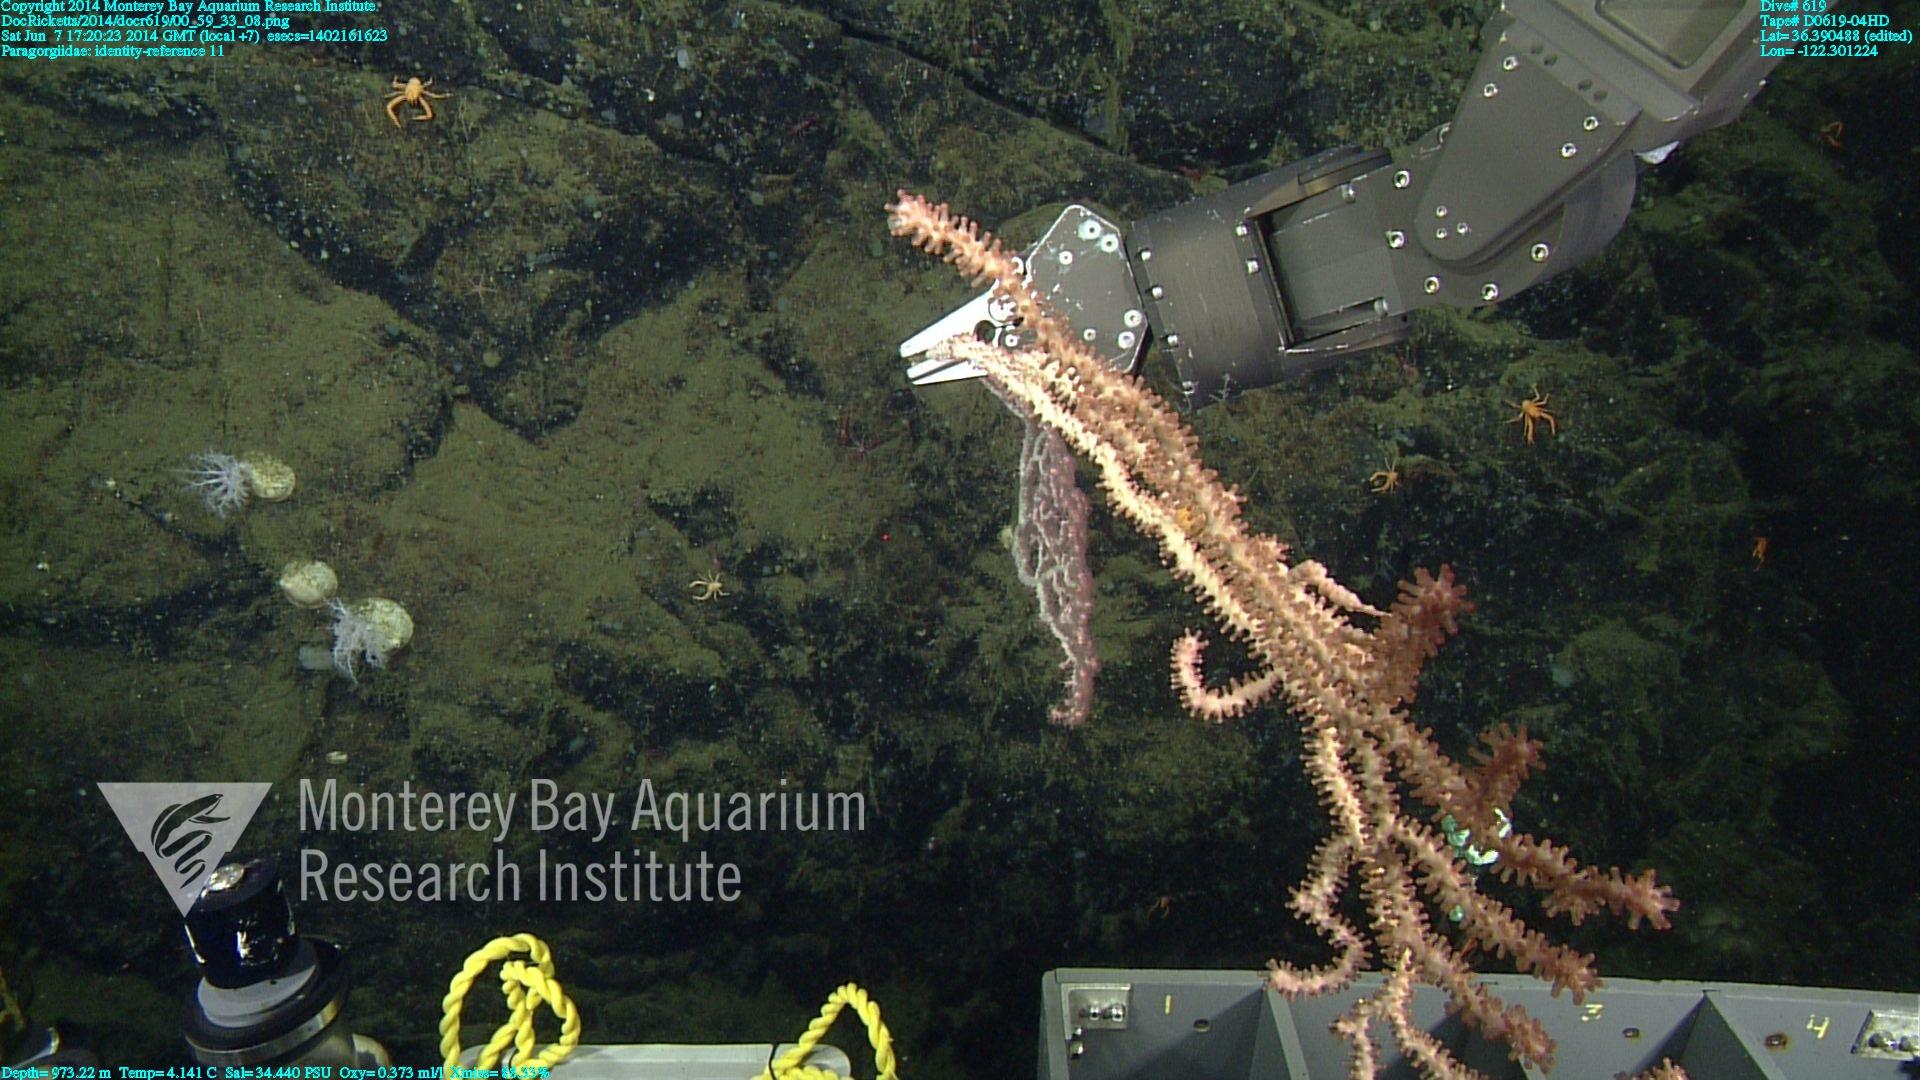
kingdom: Animalia
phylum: Cnidaria
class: Anthozoa
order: Scleralcyonacea
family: Coralliidae
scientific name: Coralliidae
